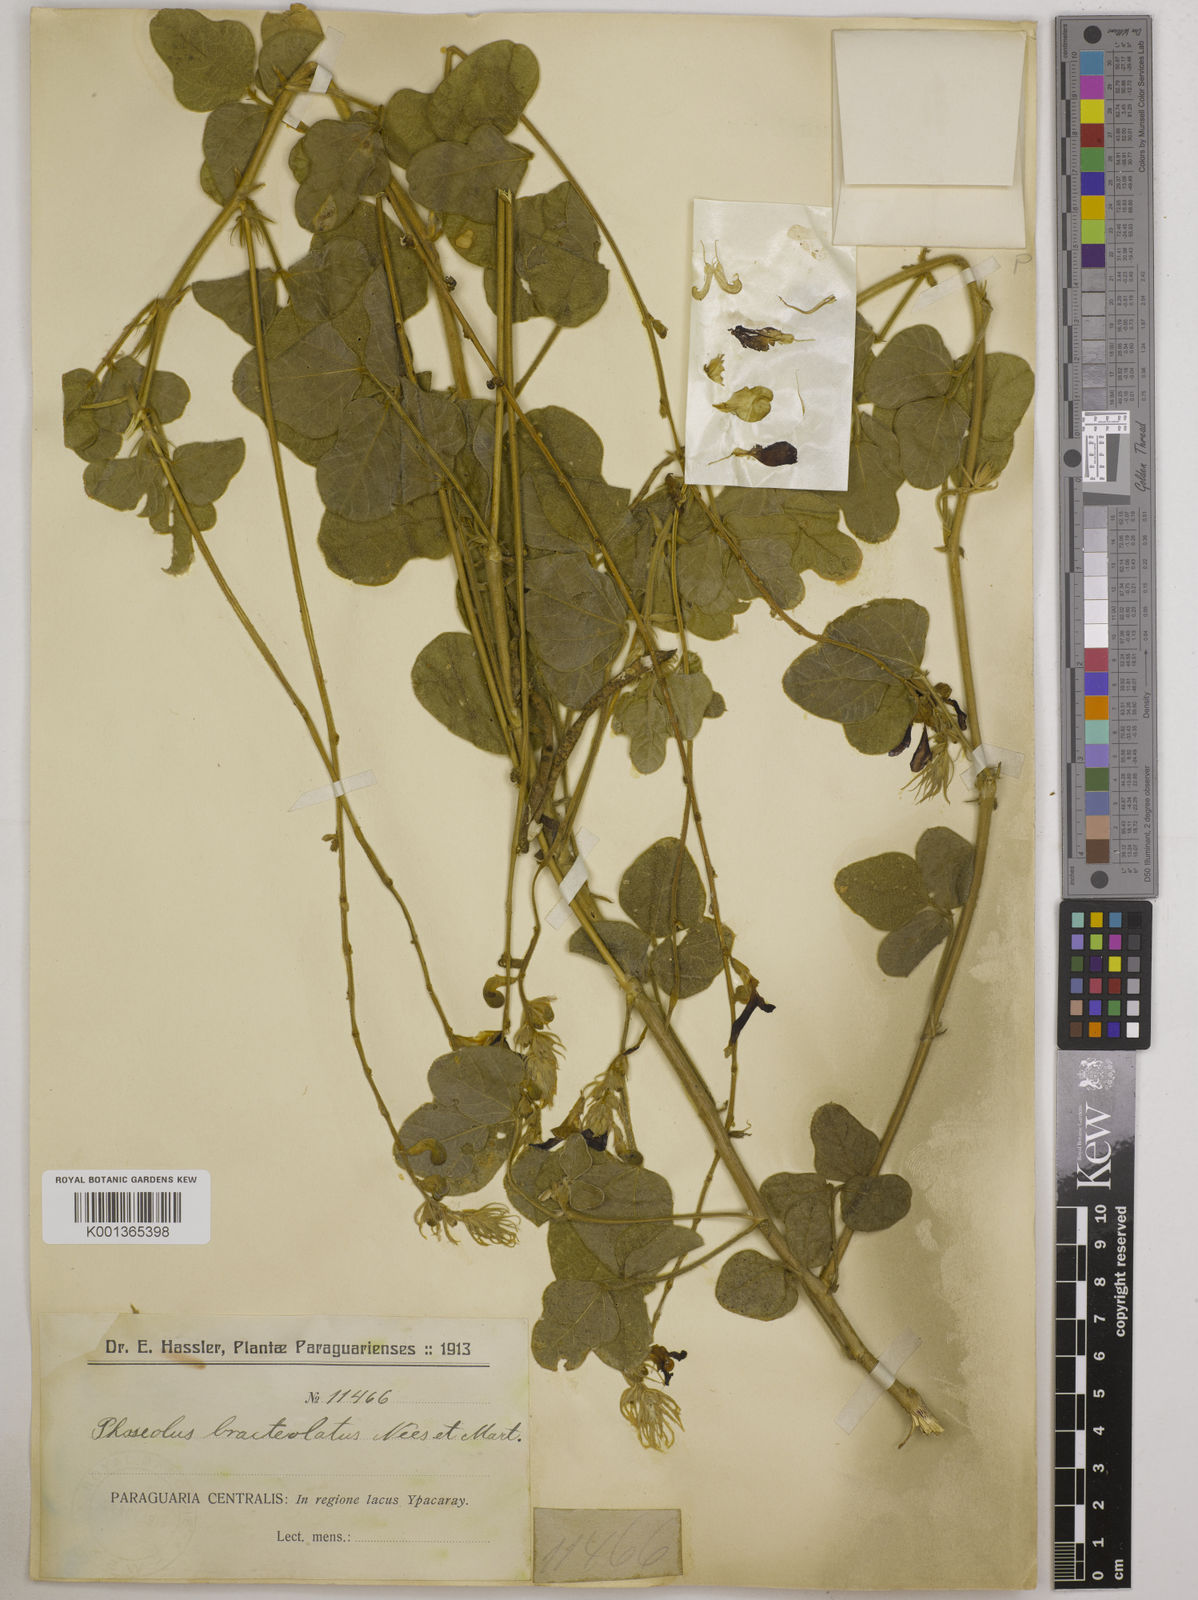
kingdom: Plantae
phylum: Tracheophyta
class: Magnoliopsida
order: Fabales
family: Fabaceae
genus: Macroptilium
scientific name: Macroptilium bracteatum
